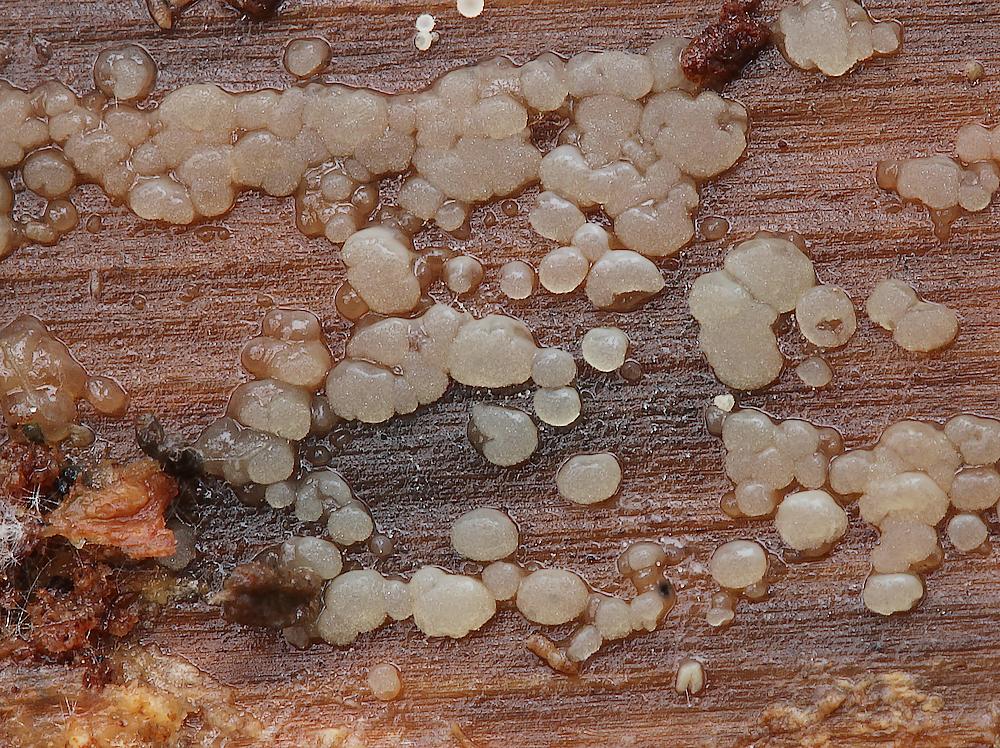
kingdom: Fungi
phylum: Basidiomycota
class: Dacrymycetes
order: Dacrymycetales
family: Dacryonaemataceae
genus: Dacryonaema
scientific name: Dacryonaema macnabbii
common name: navle-tåresvamp
